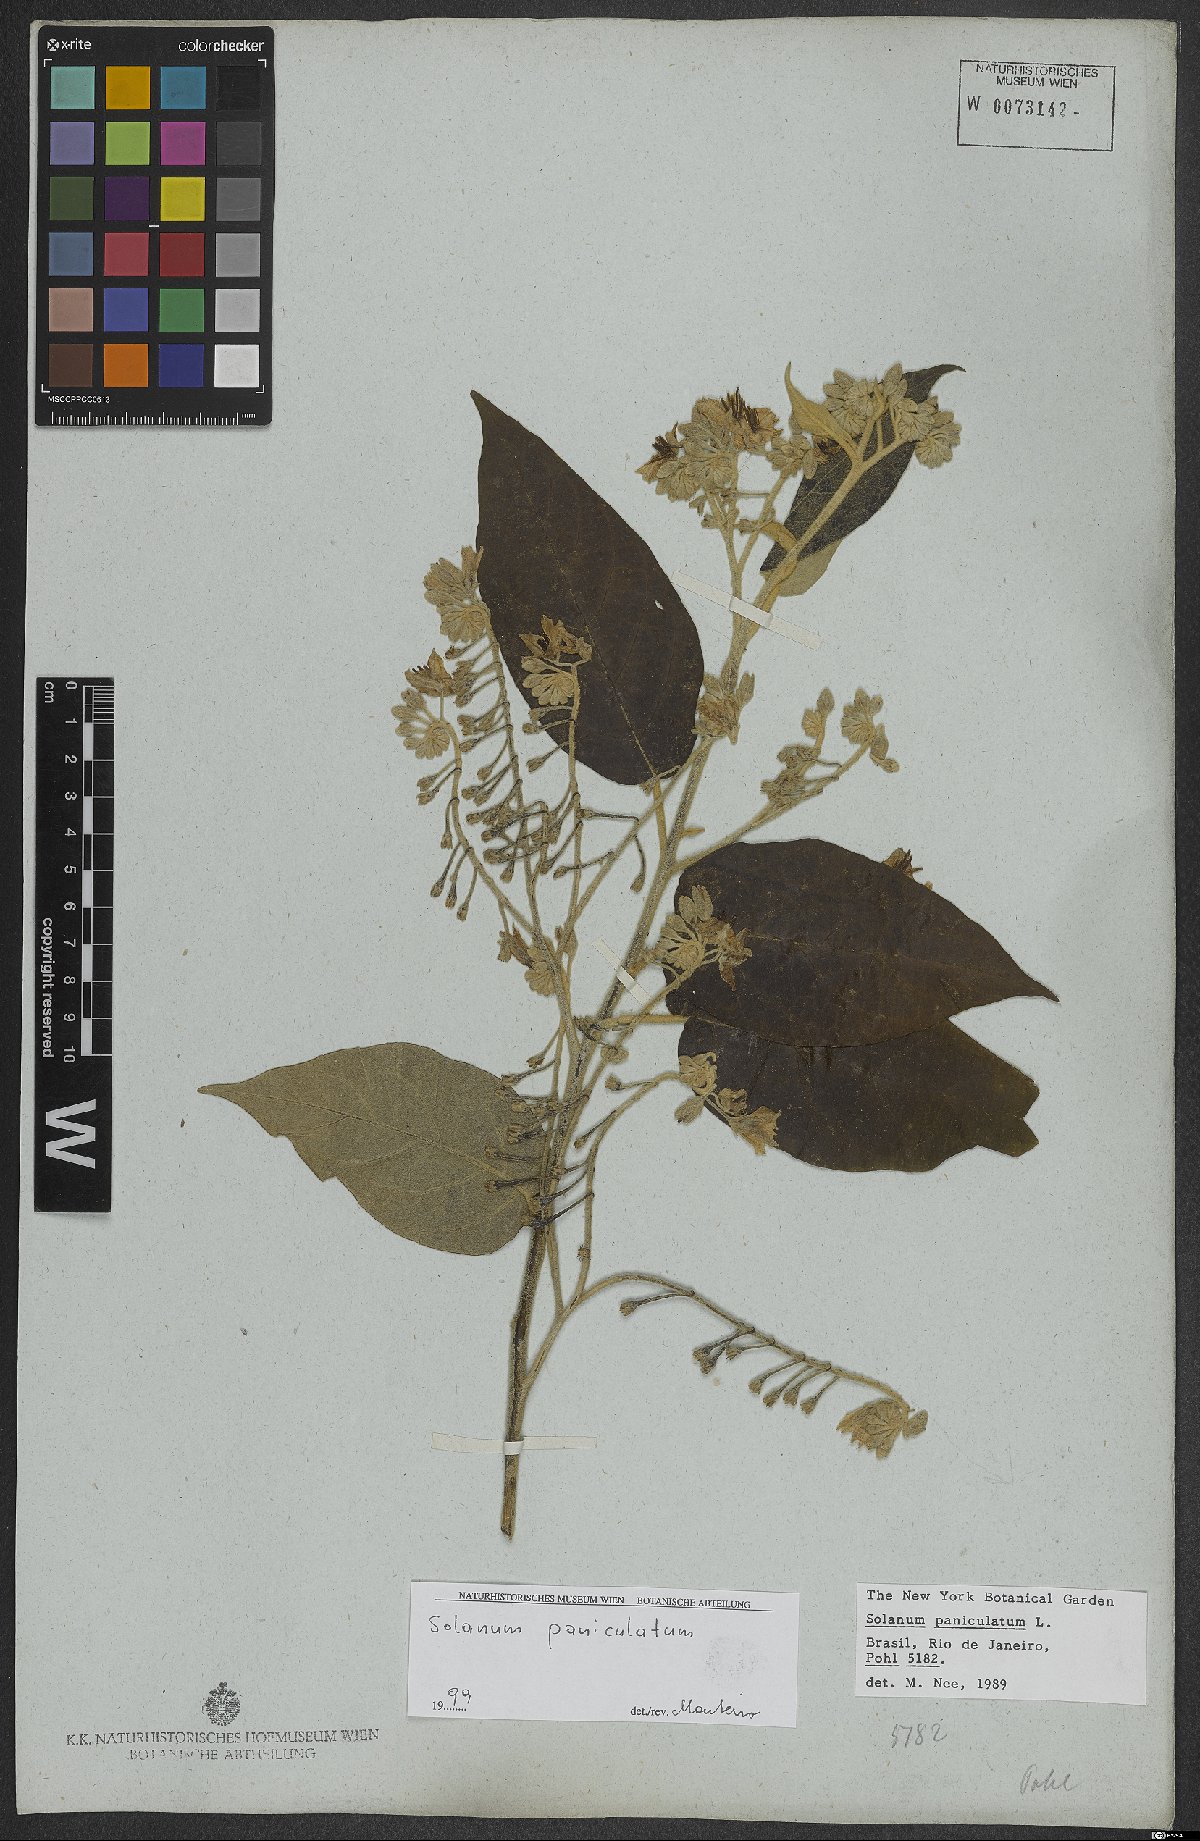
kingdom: Plantae
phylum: Tracheophyta
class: Magnoliopsida
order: Solanales
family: Solanaceae
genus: Solanum
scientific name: Solanum paniculatum
